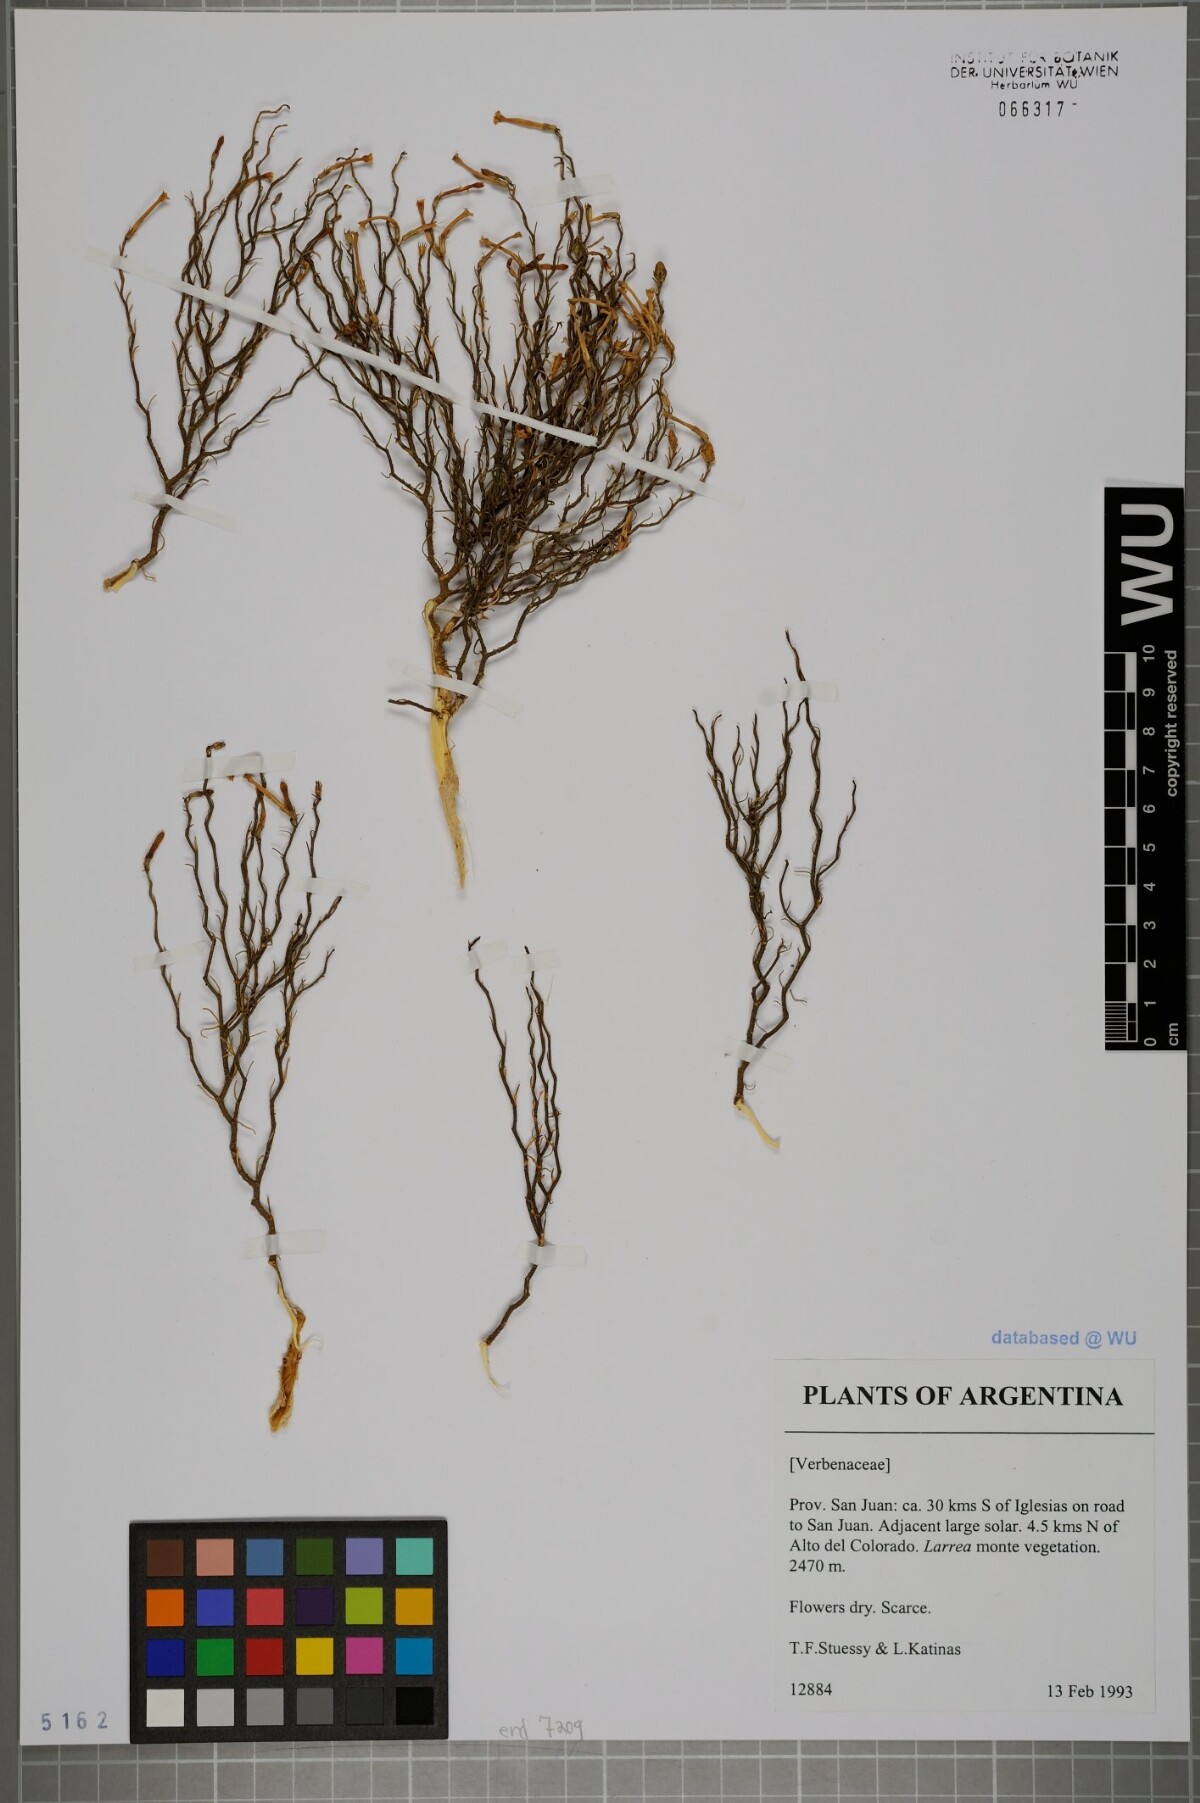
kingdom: Plantae
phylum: Tracheophyta
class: Magnoliopsida
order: Lamiales
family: Verbenaceae
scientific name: Verbenaceae
